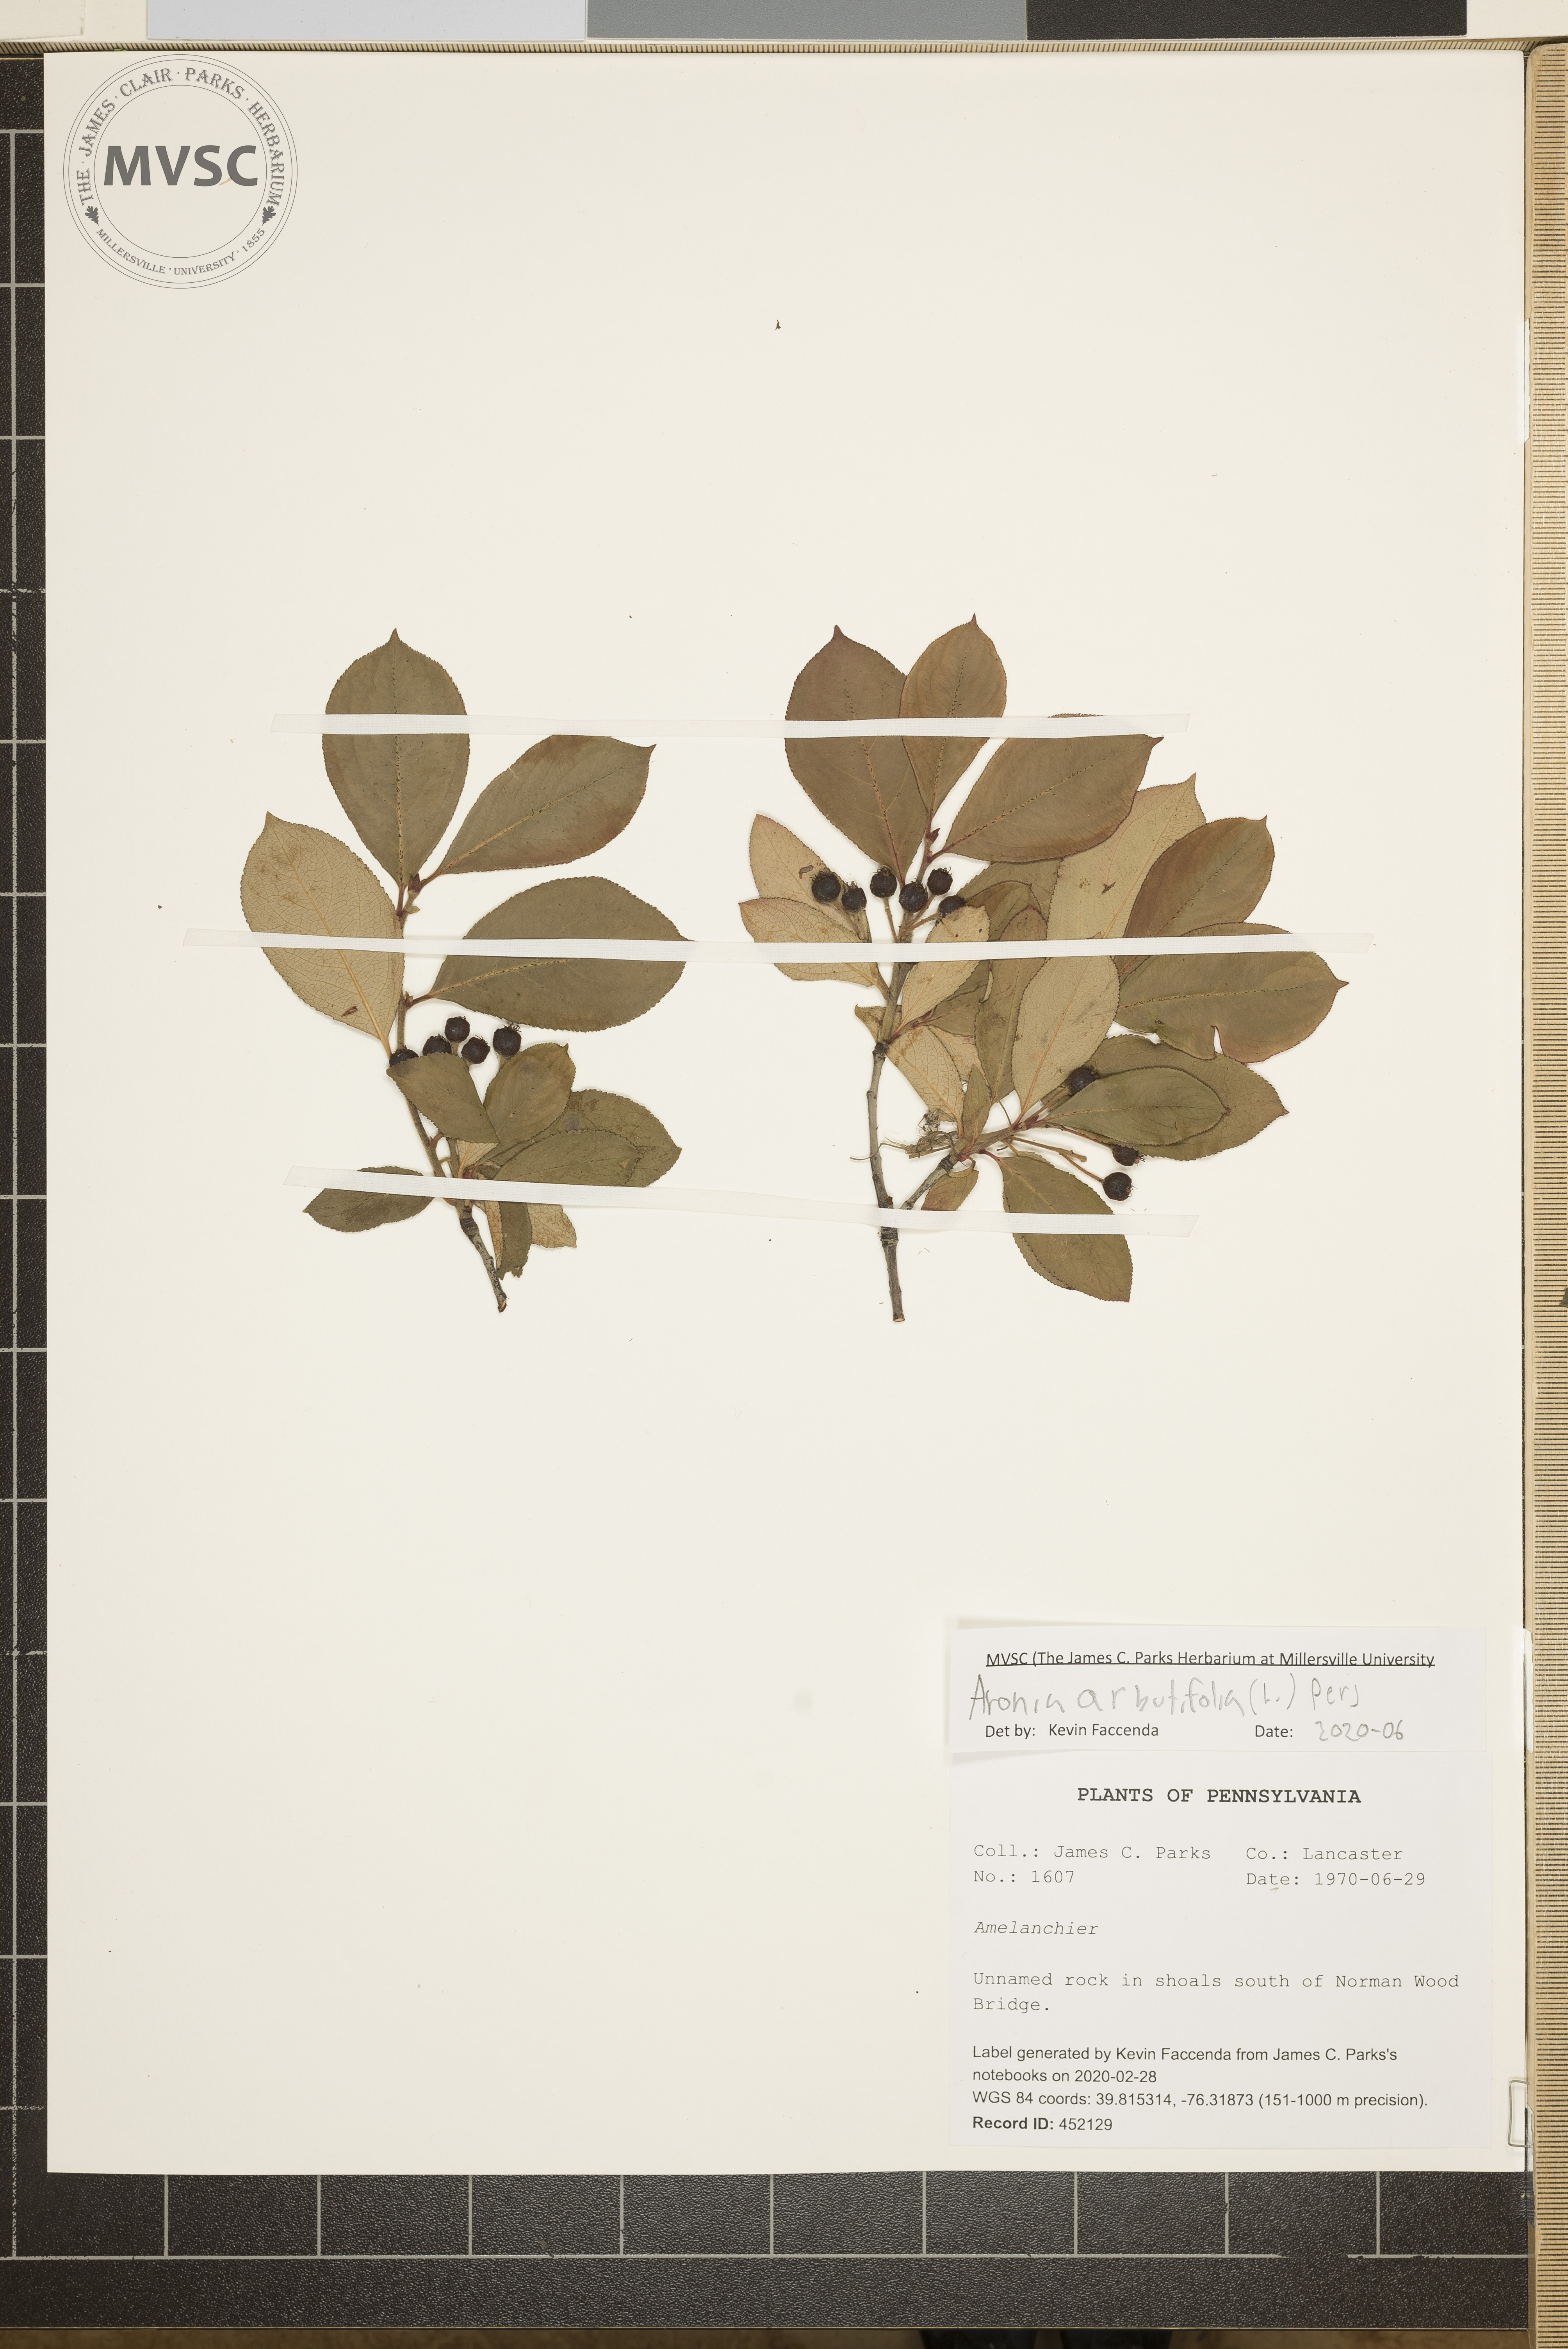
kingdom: Plantae
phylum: Tracheophyta
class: Magnoliopsida
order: Rosales
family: Rosaceae
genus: Aronia
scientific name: Aronia arbutifolia
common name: Red chokeberry
